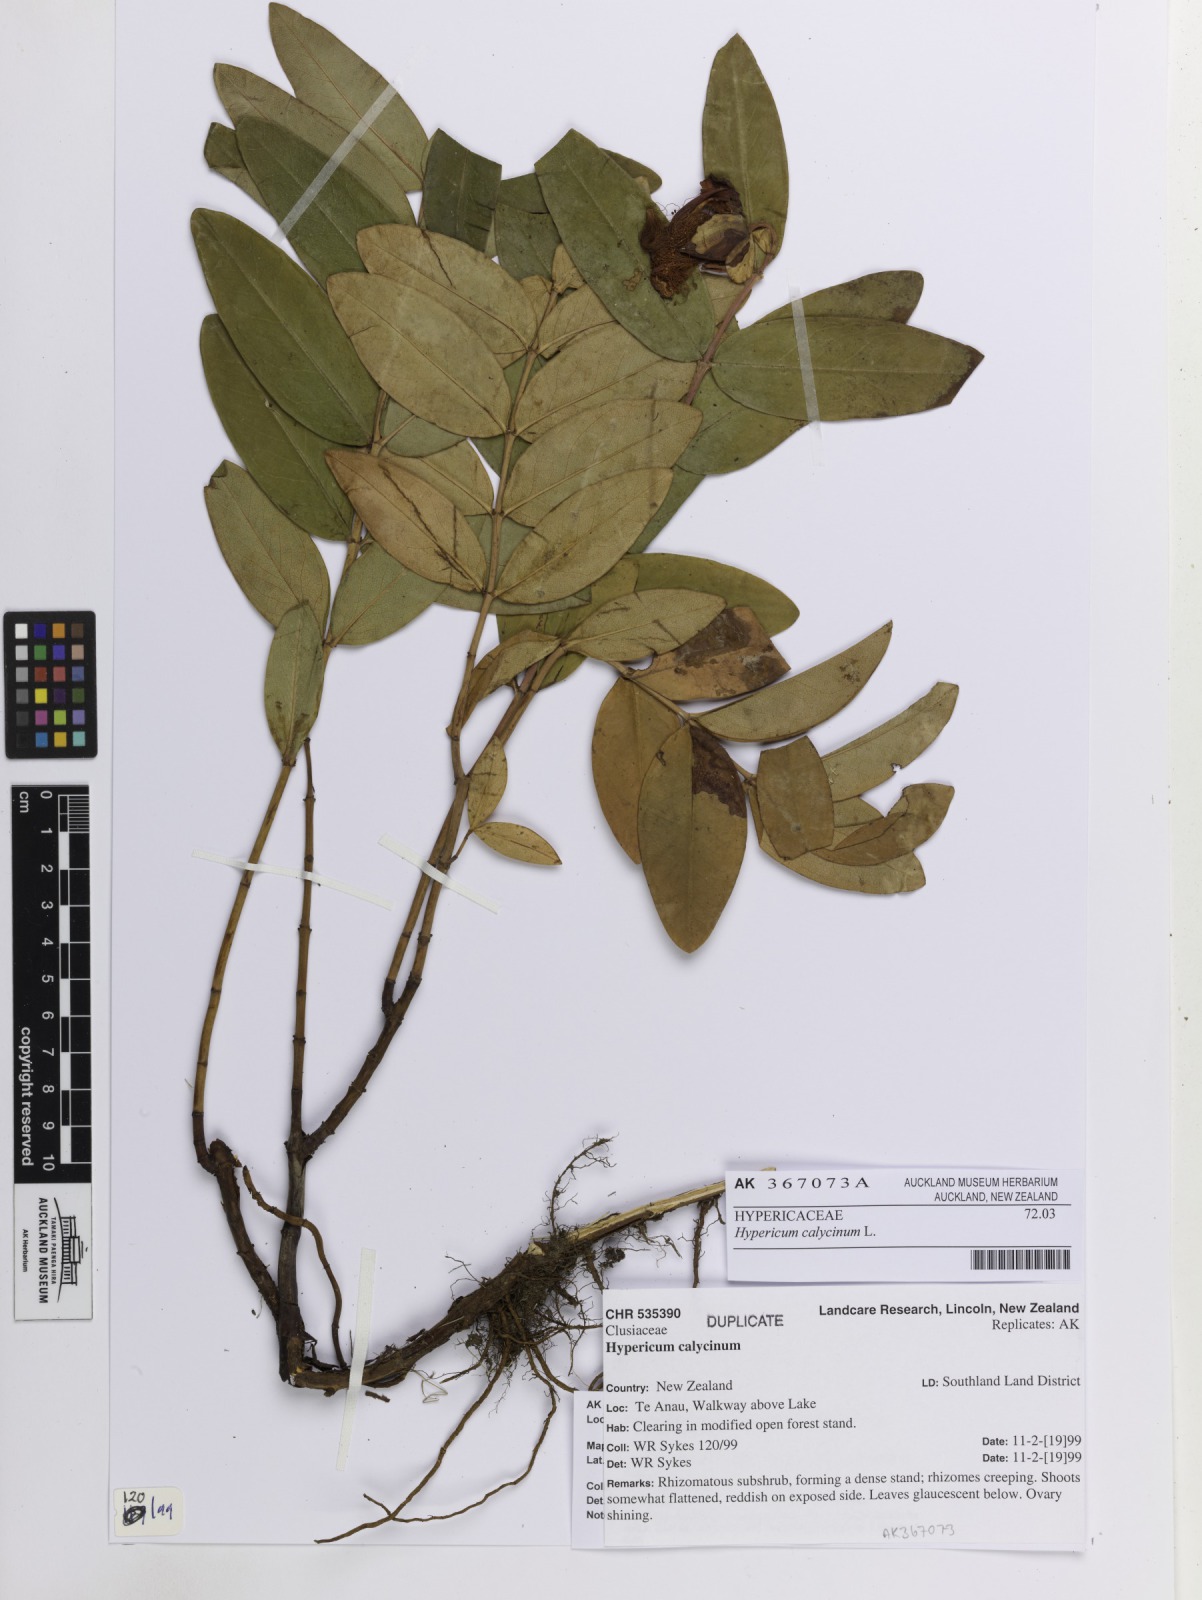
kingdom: Plantae
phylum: Tracheophyta
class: Magnoliopsida
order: Malpighiales
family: Hypericaceae
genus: Hypericum
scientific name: Hypericum calycinum
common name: Rose-of-sharon
